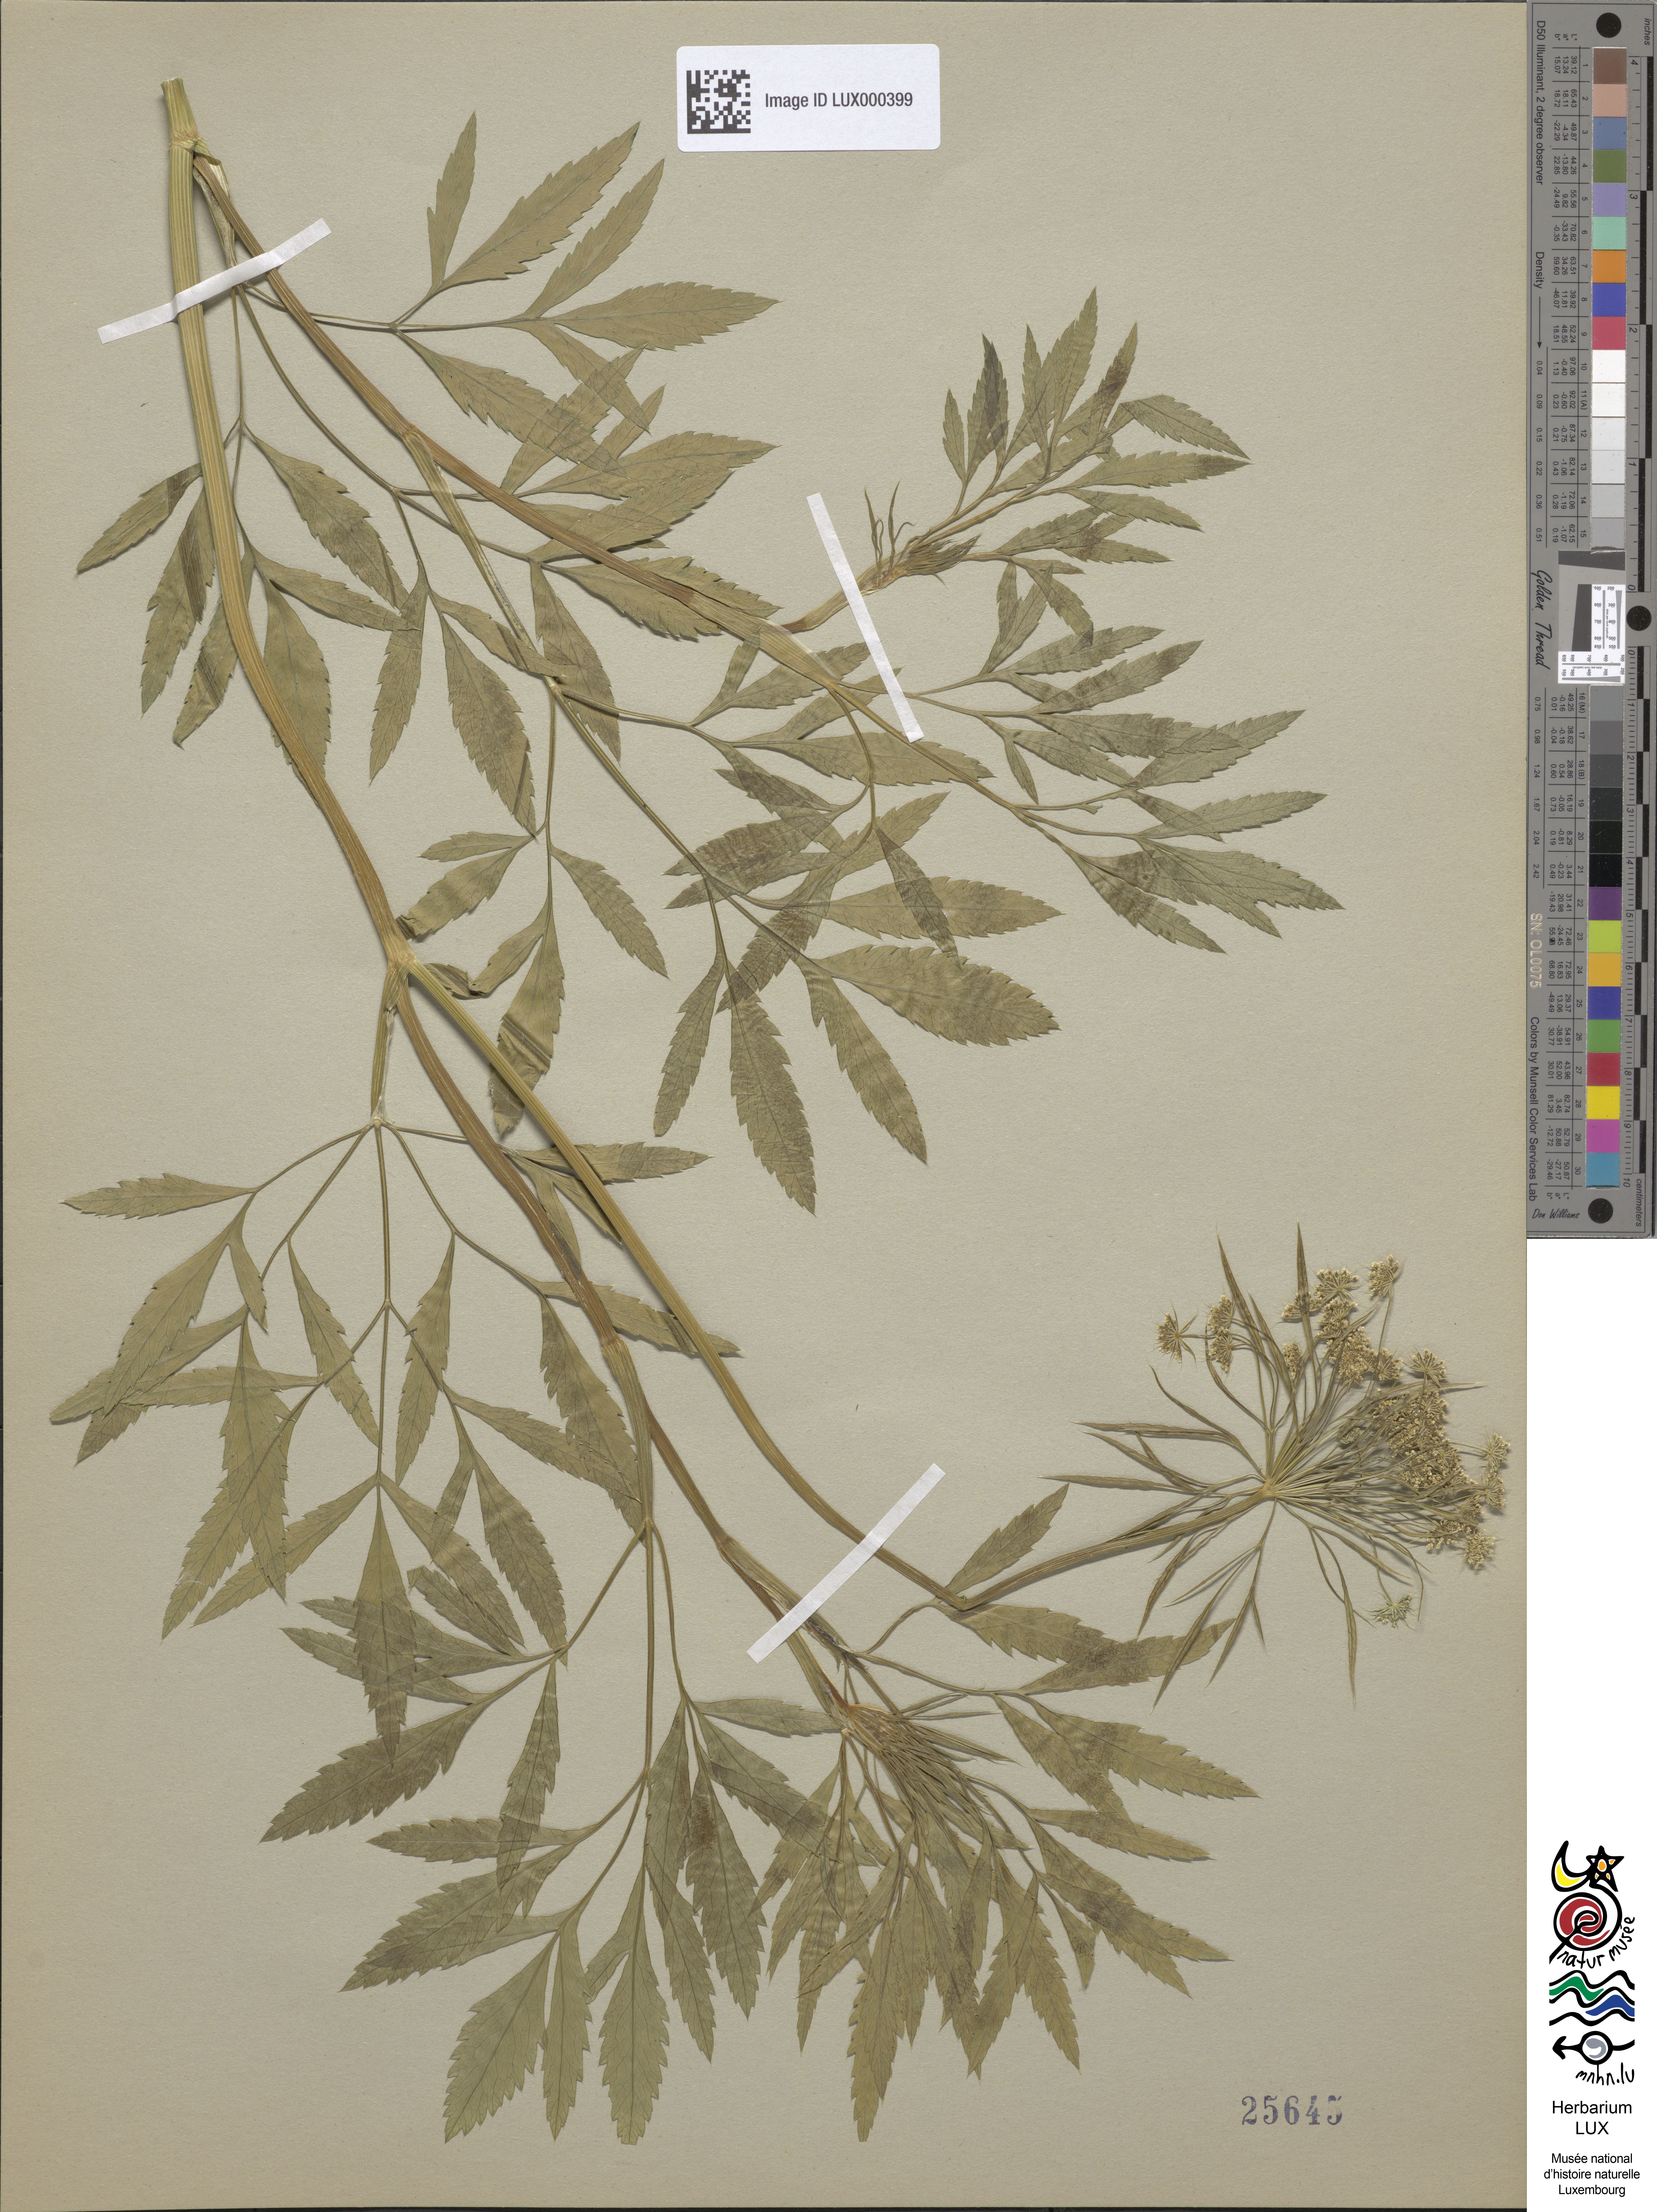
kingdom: Plantae
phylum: Tracheophyta
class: Magnoliopsida
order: Apiales
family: Apiaceae
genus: Ammi
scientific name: Ammi majus
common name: Bullwort
